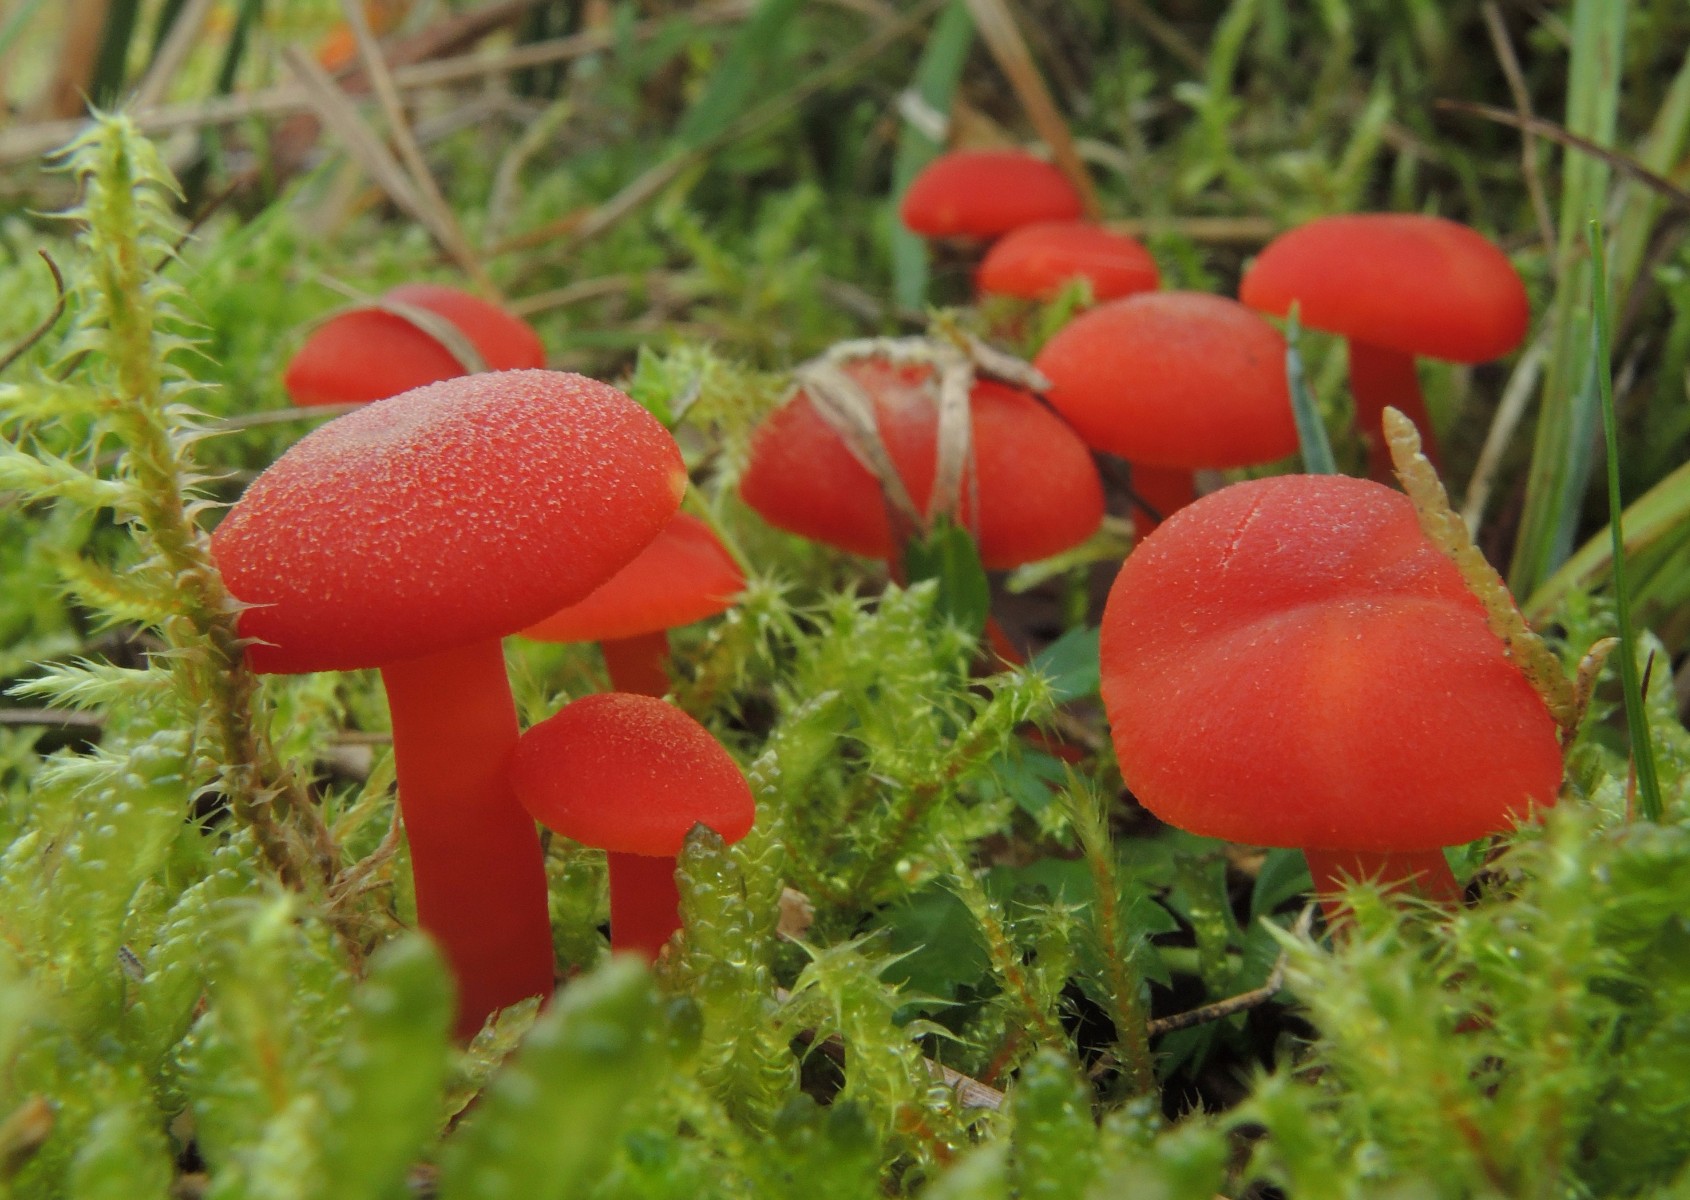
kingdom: Fungi
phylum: Basidiomycota
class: Agaricomycetes
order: Agaricales
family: Hygrophoraceae
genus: Hygrocybe
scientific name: Hygrocybe miniata
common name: mønje-vokshat
